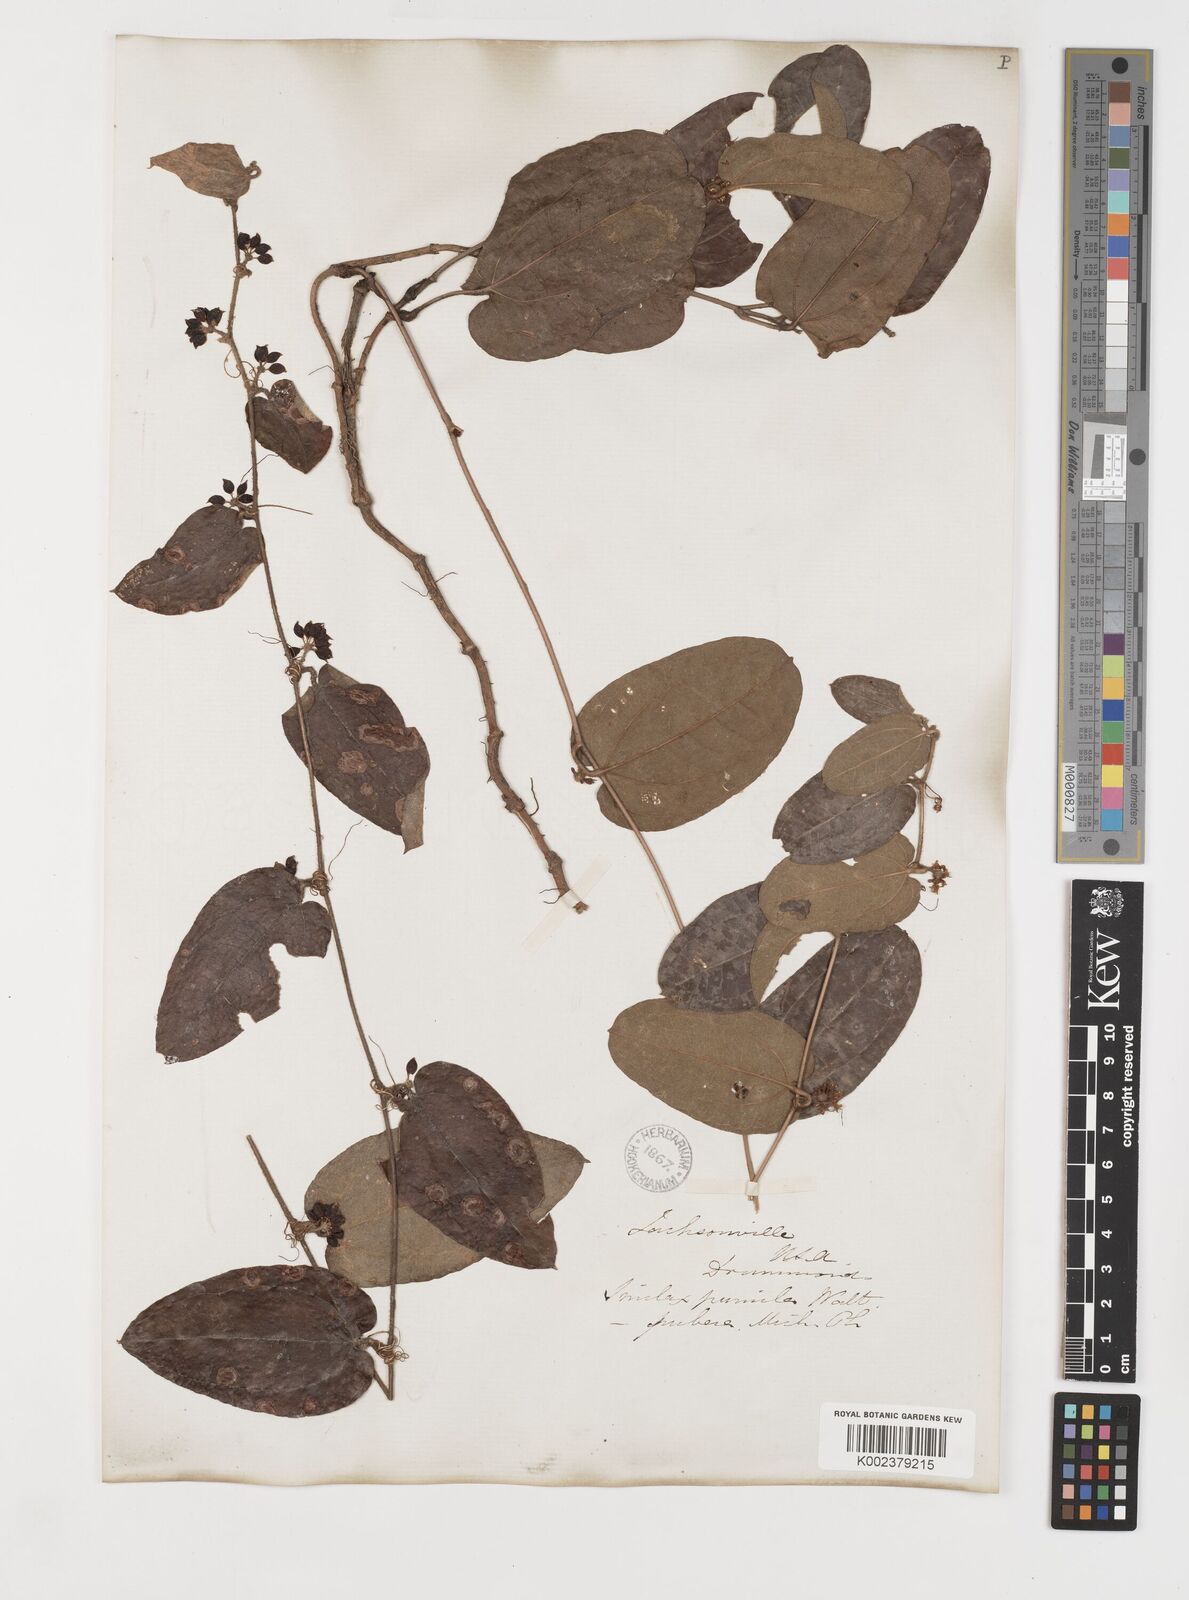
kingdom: Plantae
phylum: Tracheophyta
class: Liliopsida
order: Liliales
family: Smilacaceae
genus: Smilax
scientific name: Smilax pumila
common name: Sarsaparilla-vine
